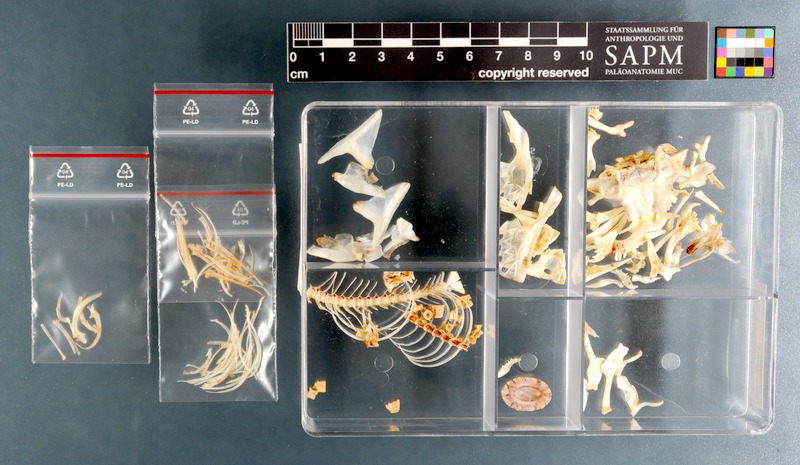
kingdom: Animalia
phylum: Chordata
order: Gobiesociformes
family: Gobiesocidae
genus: Chorisochismus
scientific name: Chorisochismus dentex
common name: Rocksucker
